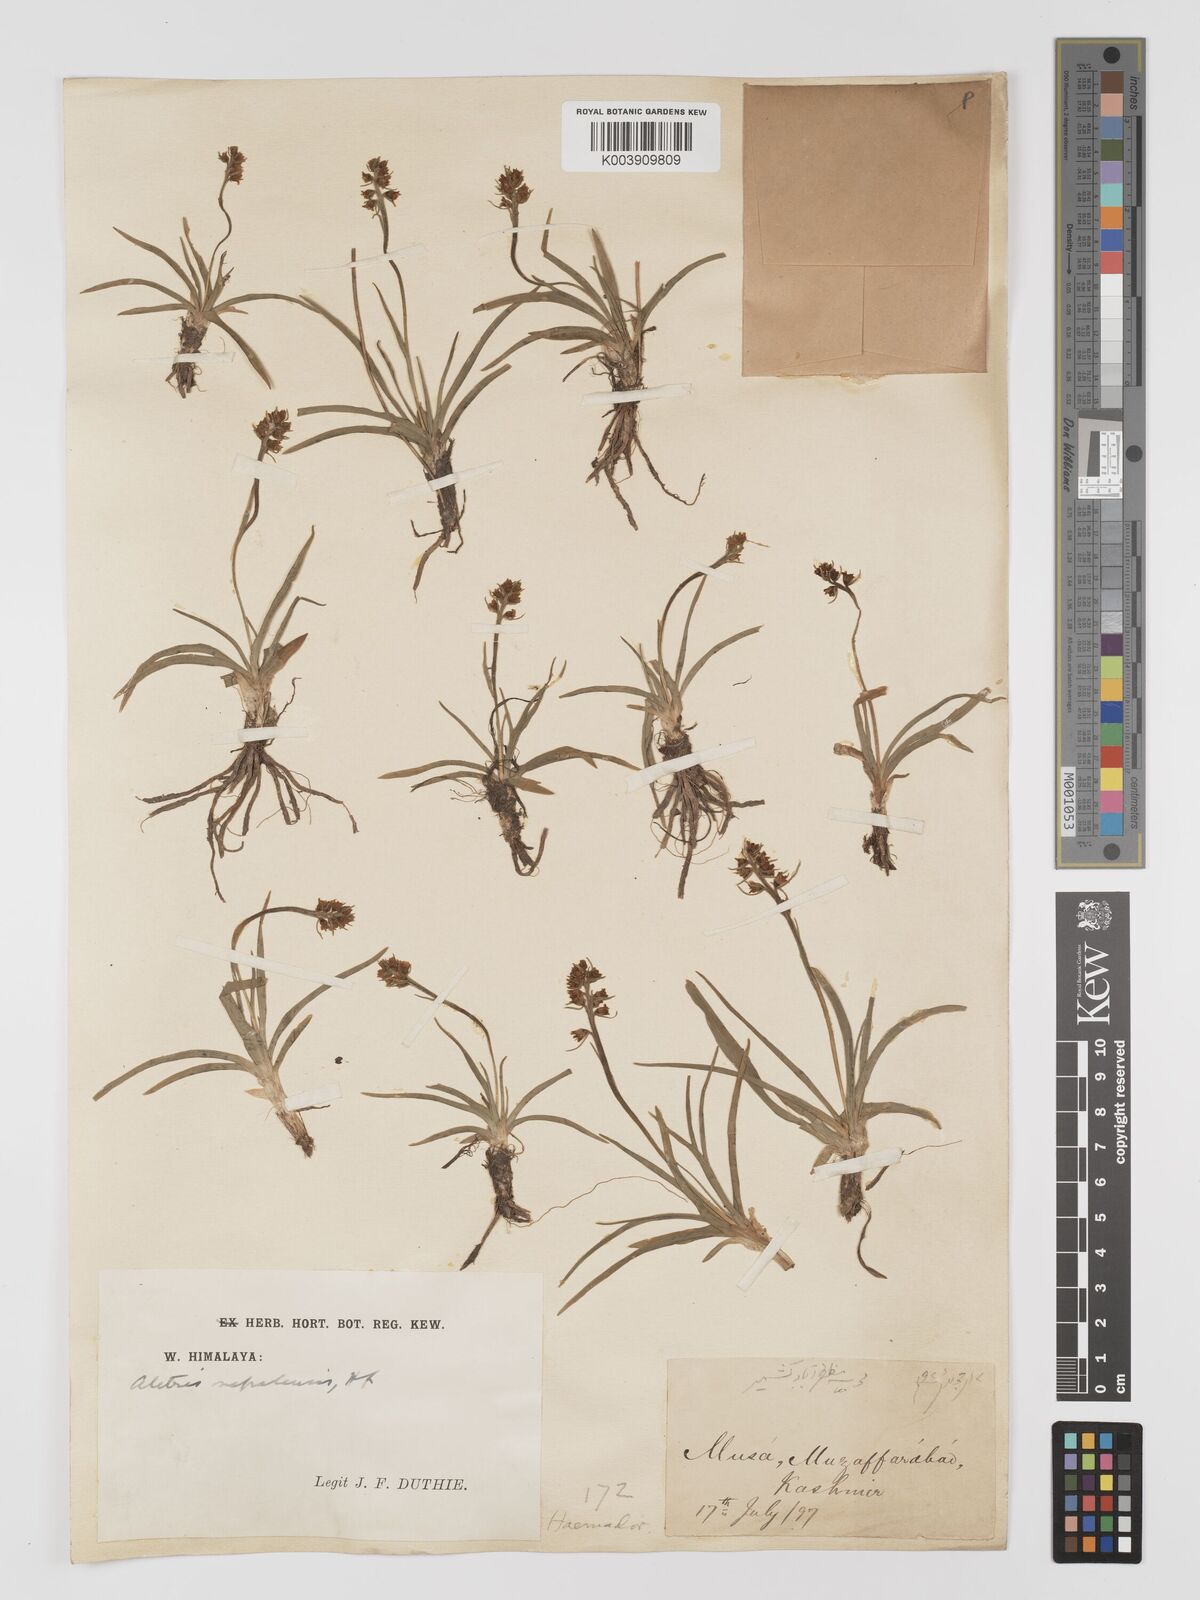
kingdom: Plantae
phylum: Tracheophyta
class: Liliopsida
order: Dioscoreales
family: Nartheciaceae
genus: Aletris
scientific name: Aletris pauciflora
